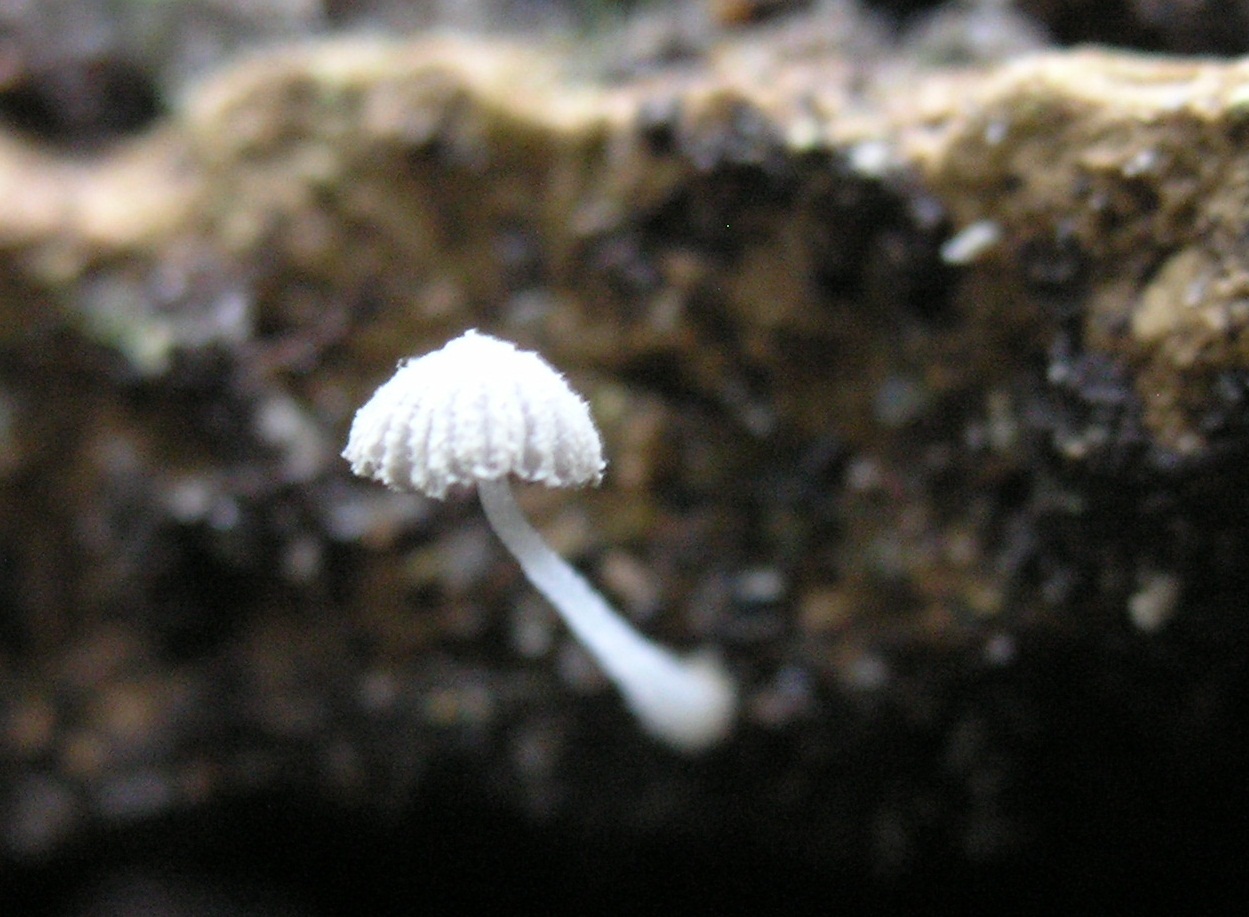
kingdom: Fungi
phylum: Basidiomycota
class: Agaricomycetes
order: Agaricales
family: Psathyrellaceae
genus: Coprinopsis
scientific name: Coprinopsis cortinata
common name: slør-blækhat
